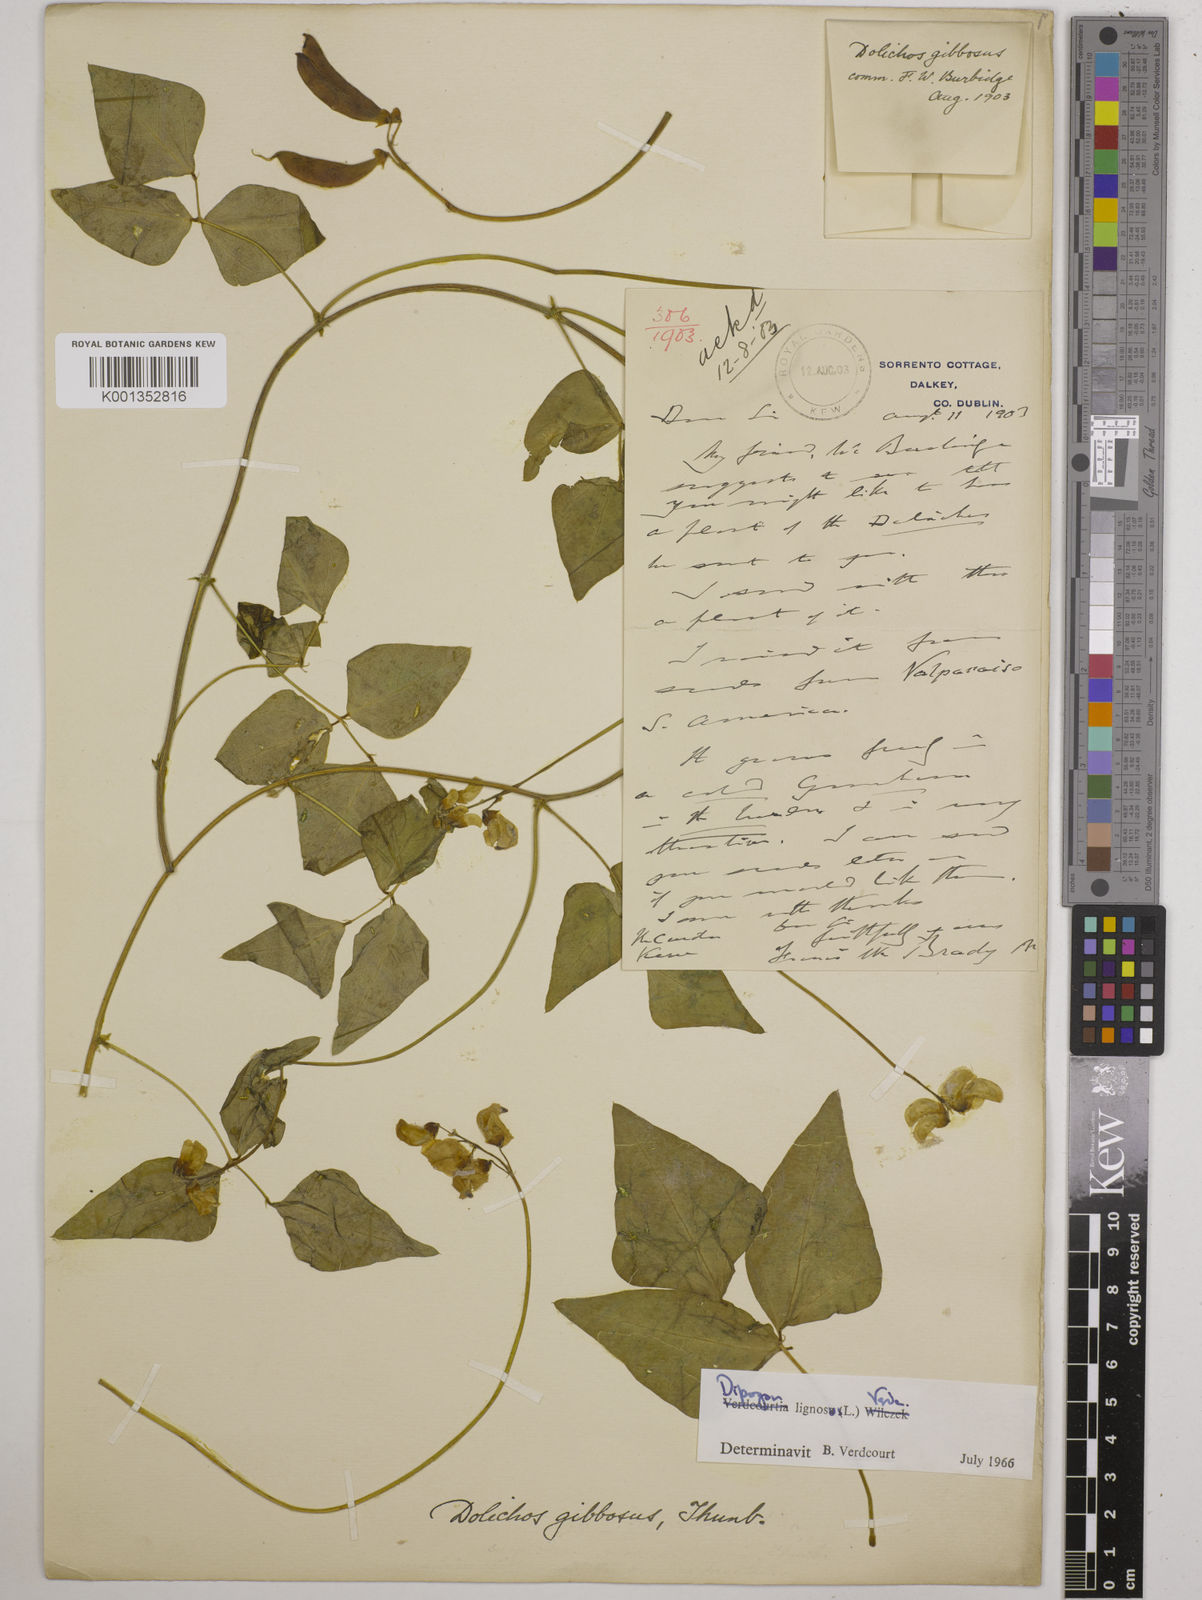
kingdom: Plantae
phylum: Tracheophyta
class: Magnoliopsida
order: Fabales
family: Fabaceae
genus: Dipogon
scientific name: Dipogon lignosus
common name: Okie bean
